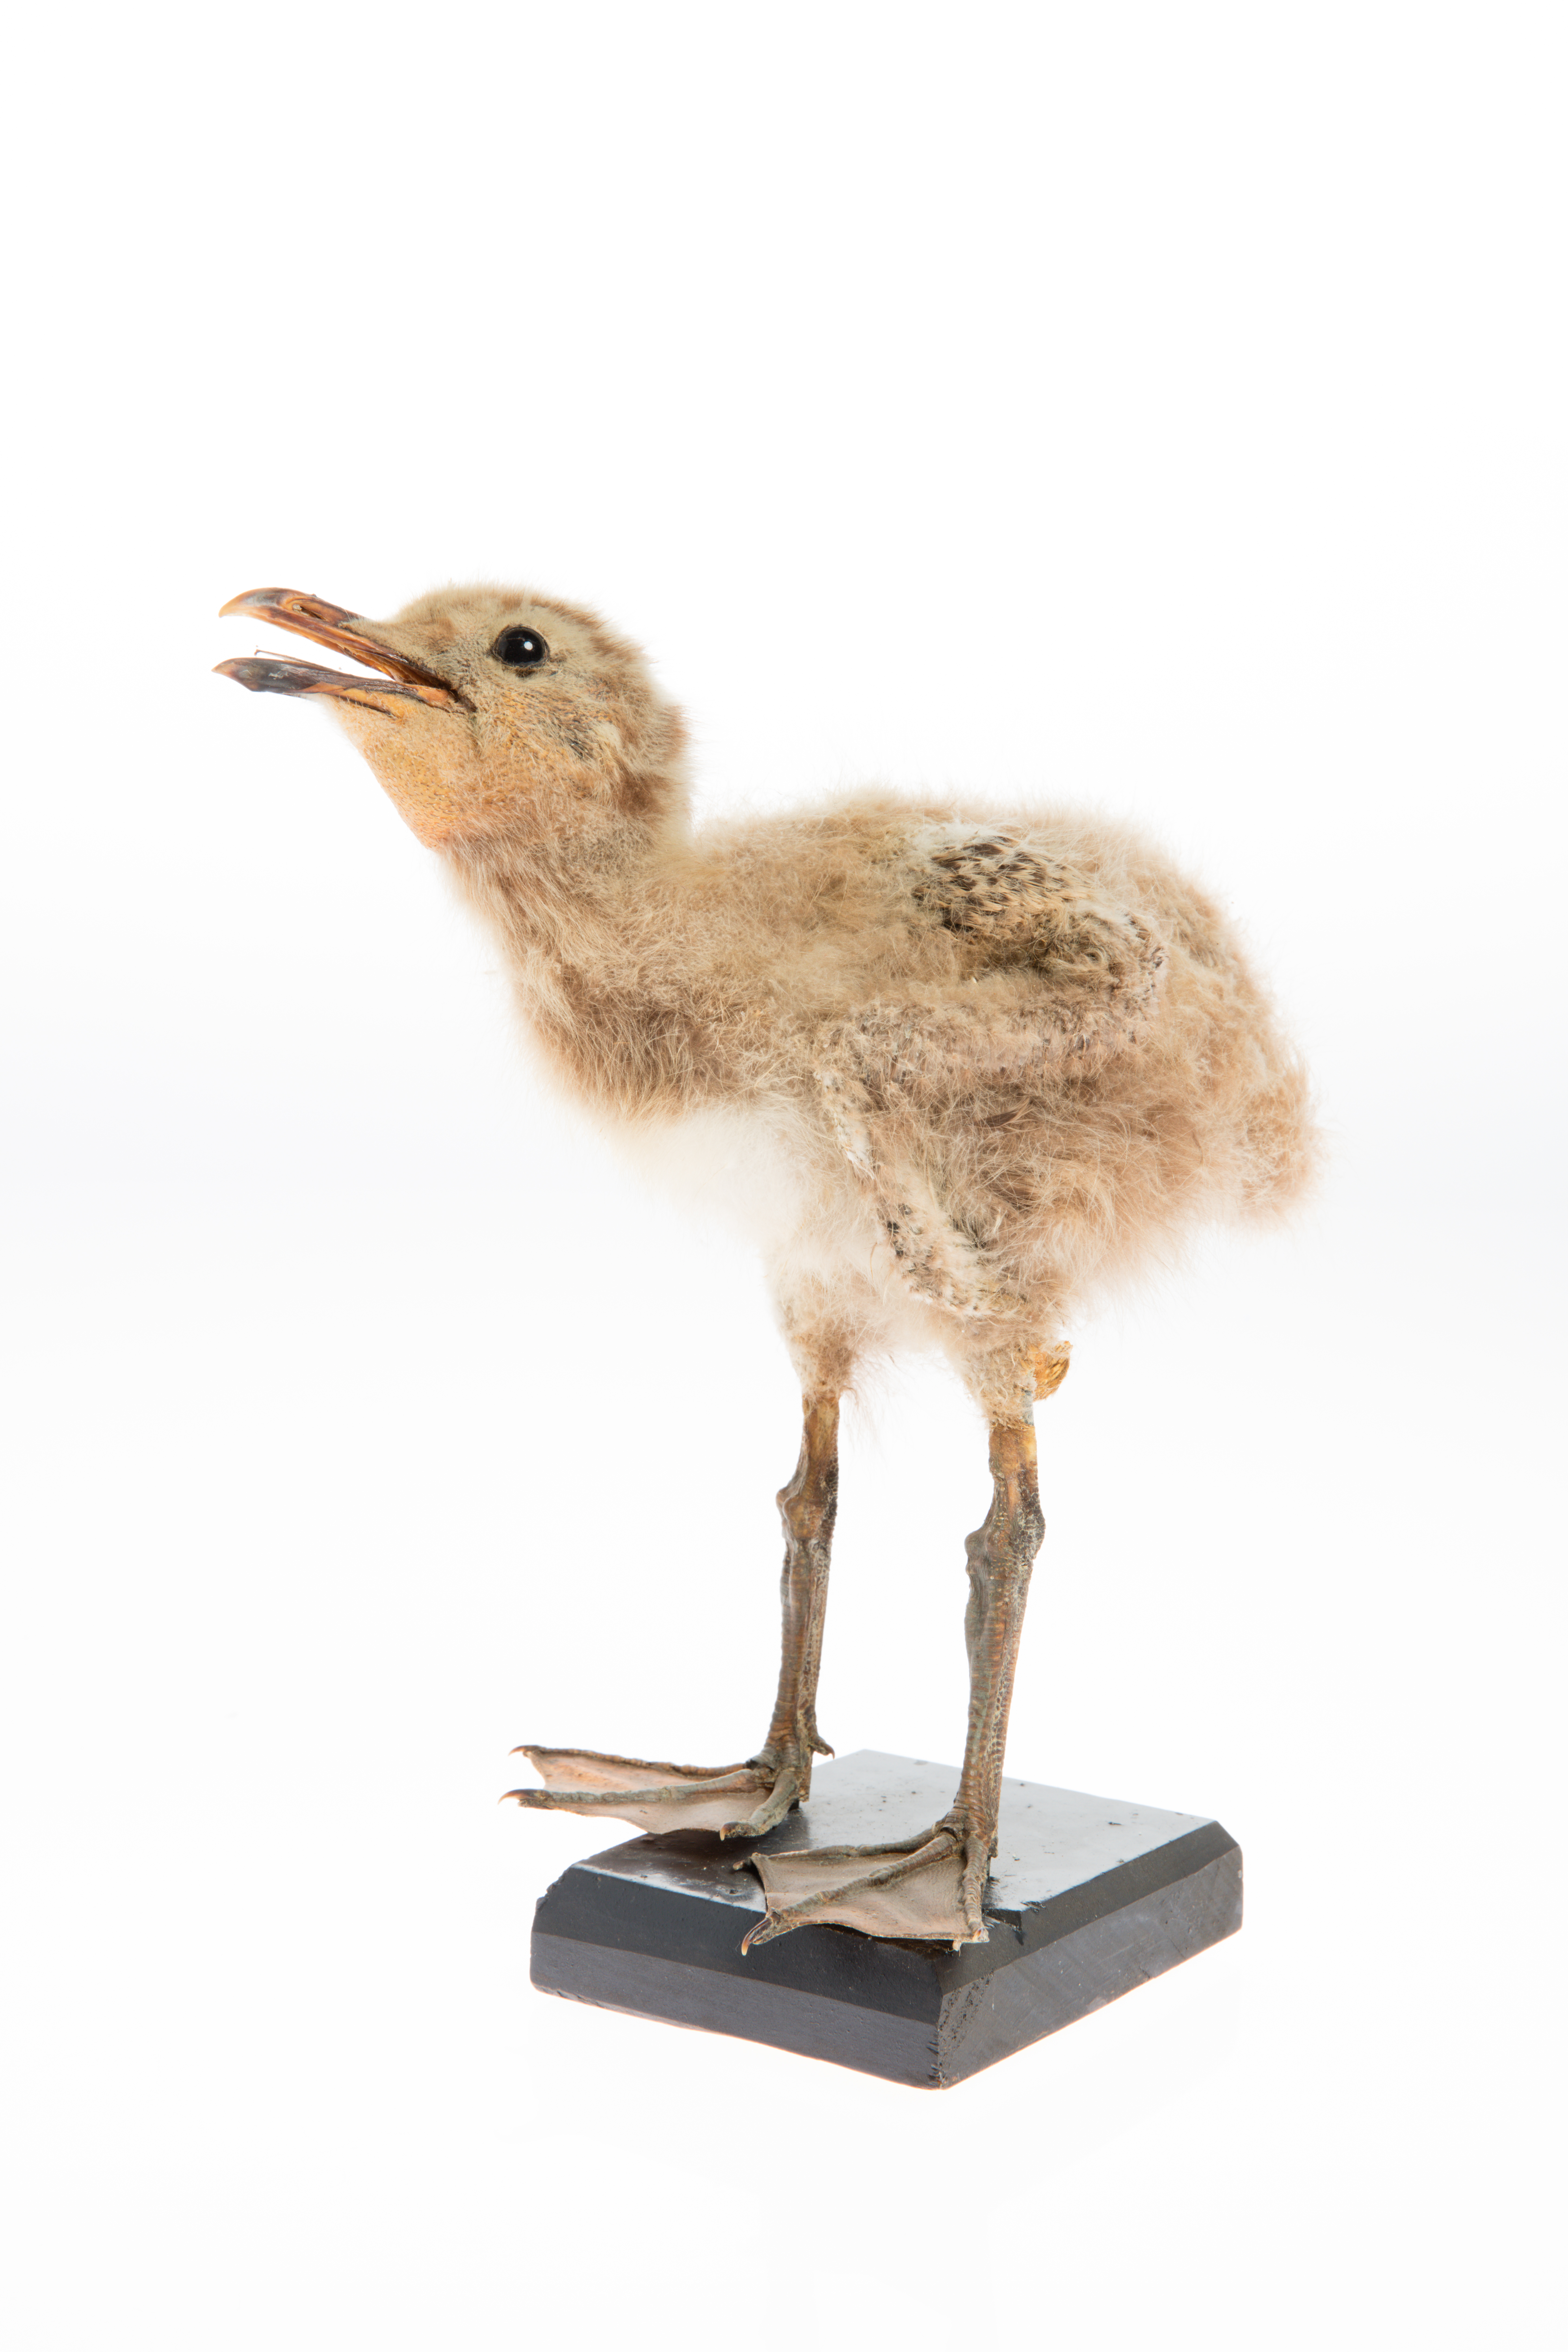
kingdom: Animalia
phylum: Chordata
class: Aves
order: Charadriiformes
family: Laridae
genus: Larus
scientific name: Larus dominicanus
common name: Kelp gull
